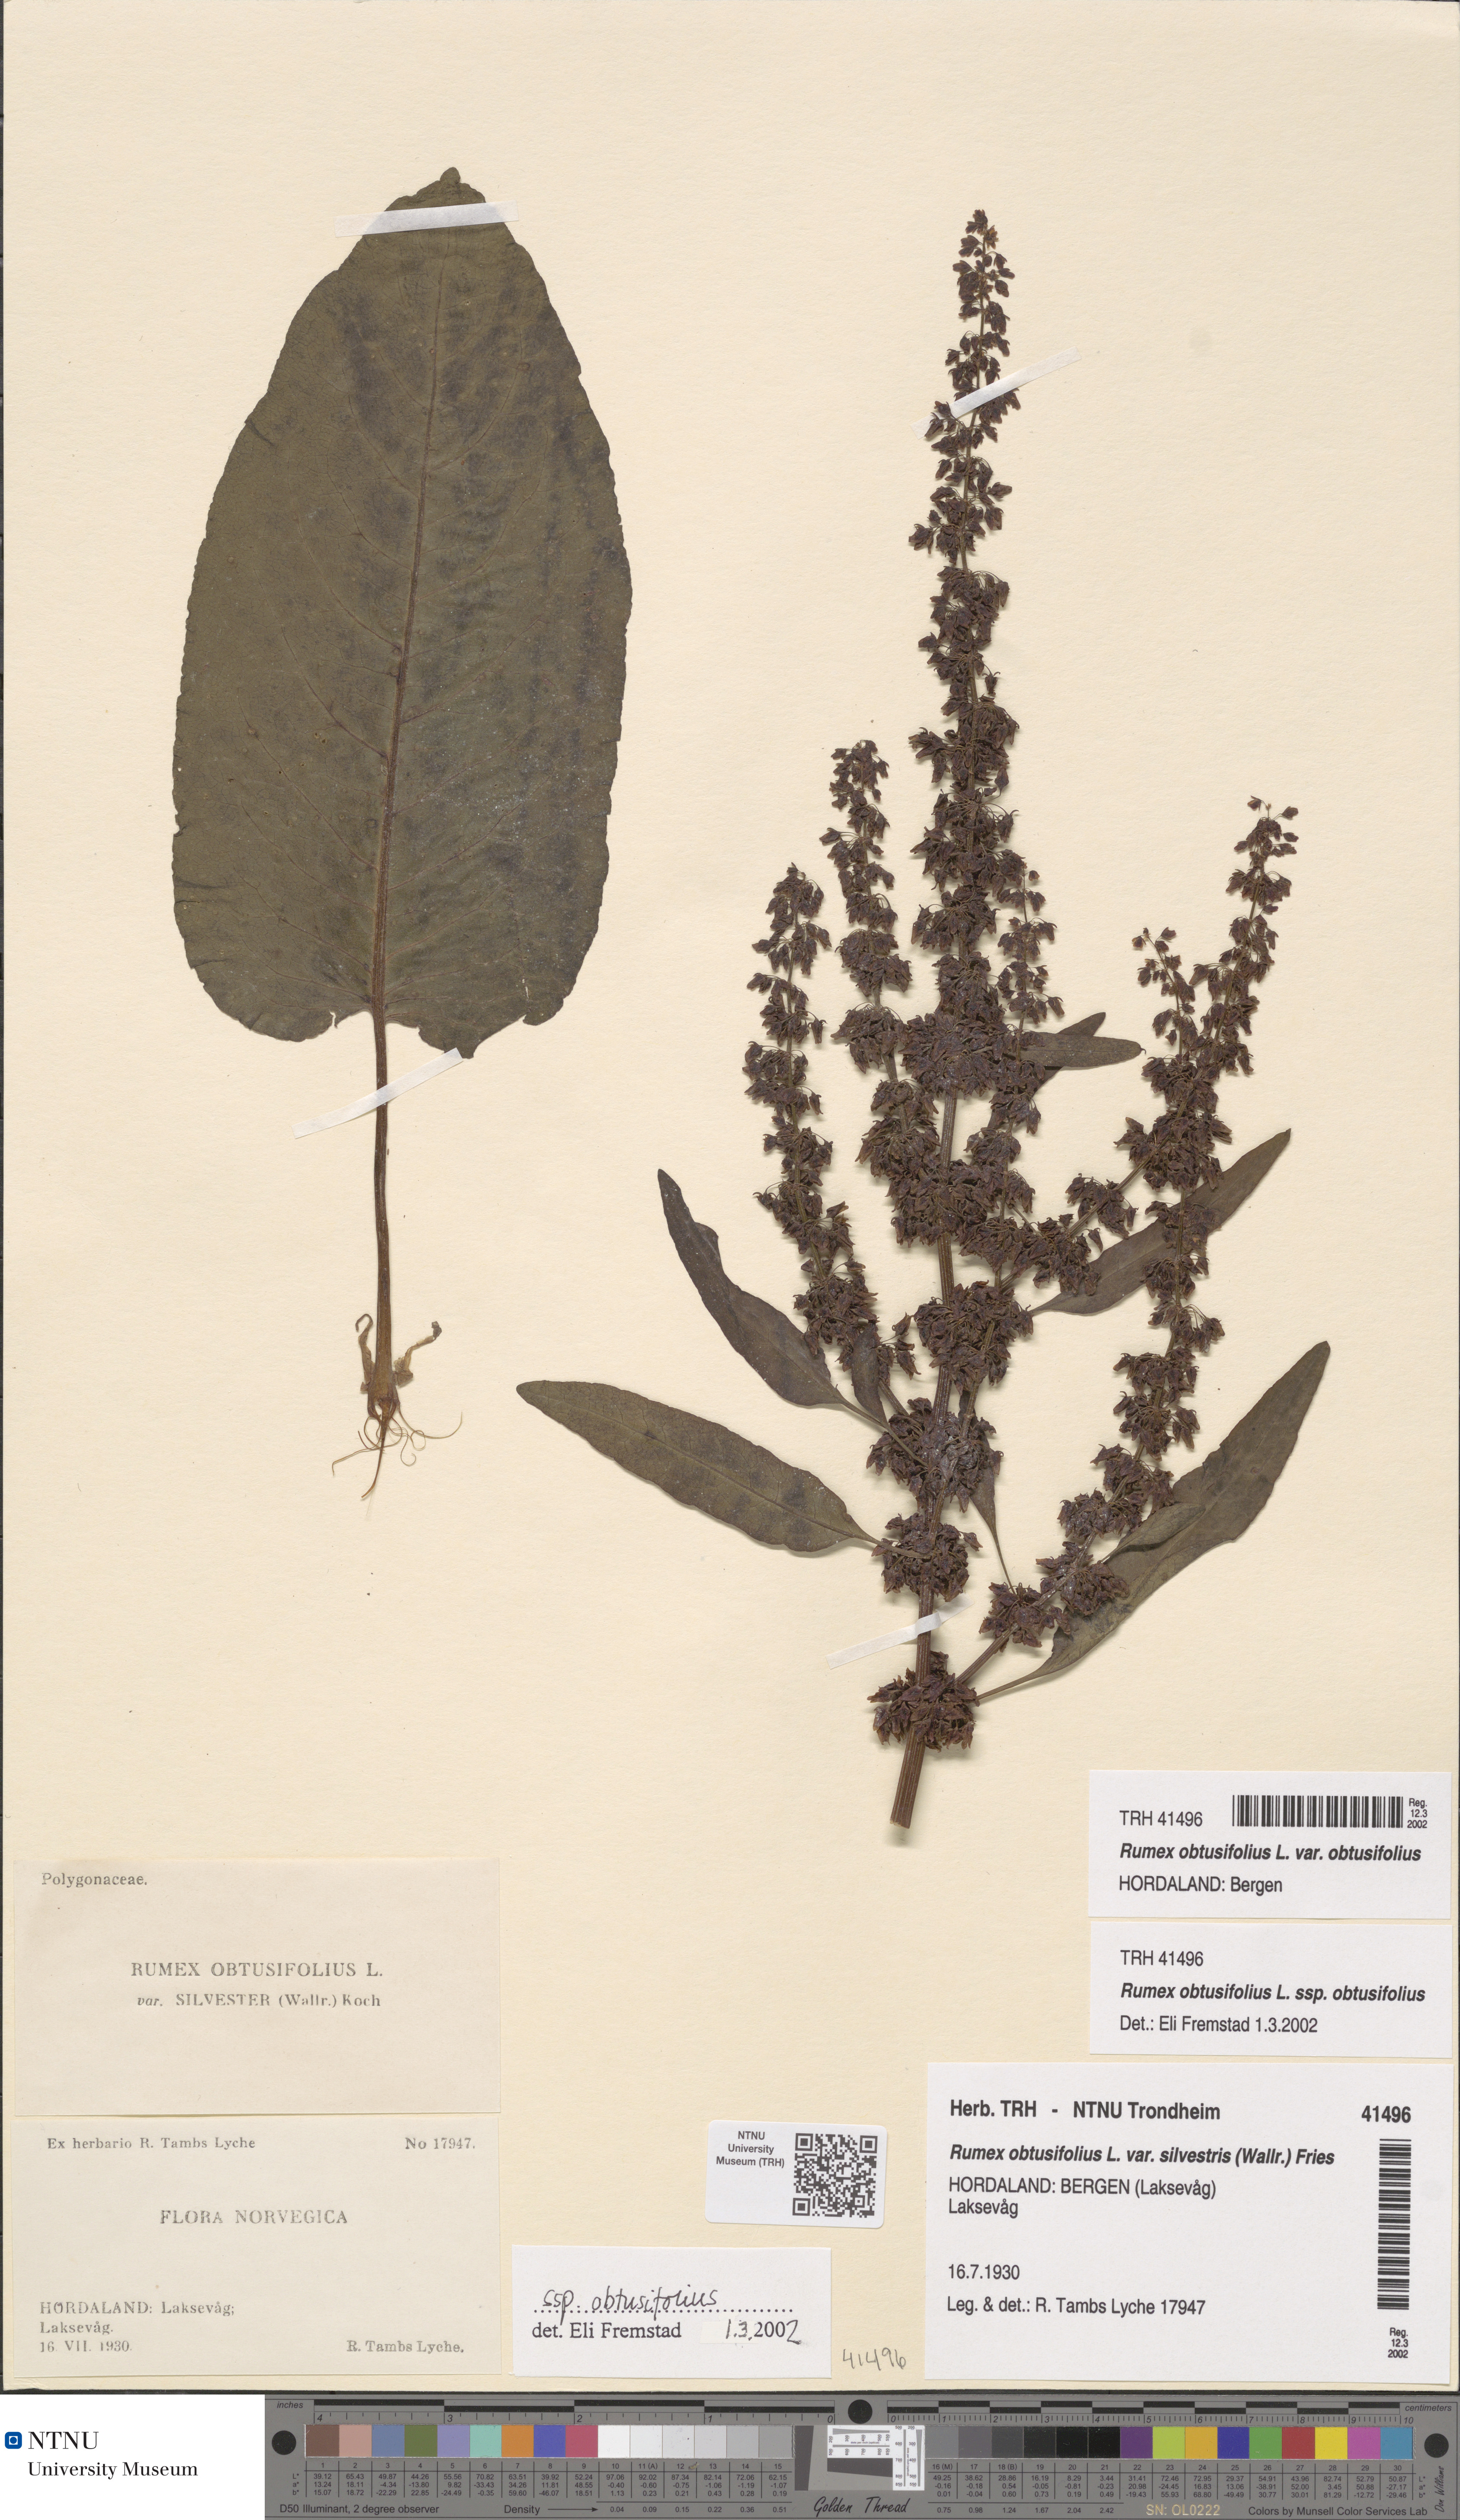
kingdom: Plantae
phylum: Tracheophyta
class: Magnoliopsida
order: Caryophyllales
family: Polygonaceae
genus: Rumex
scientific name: Rumex obtusifolius
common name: Bitter dock
